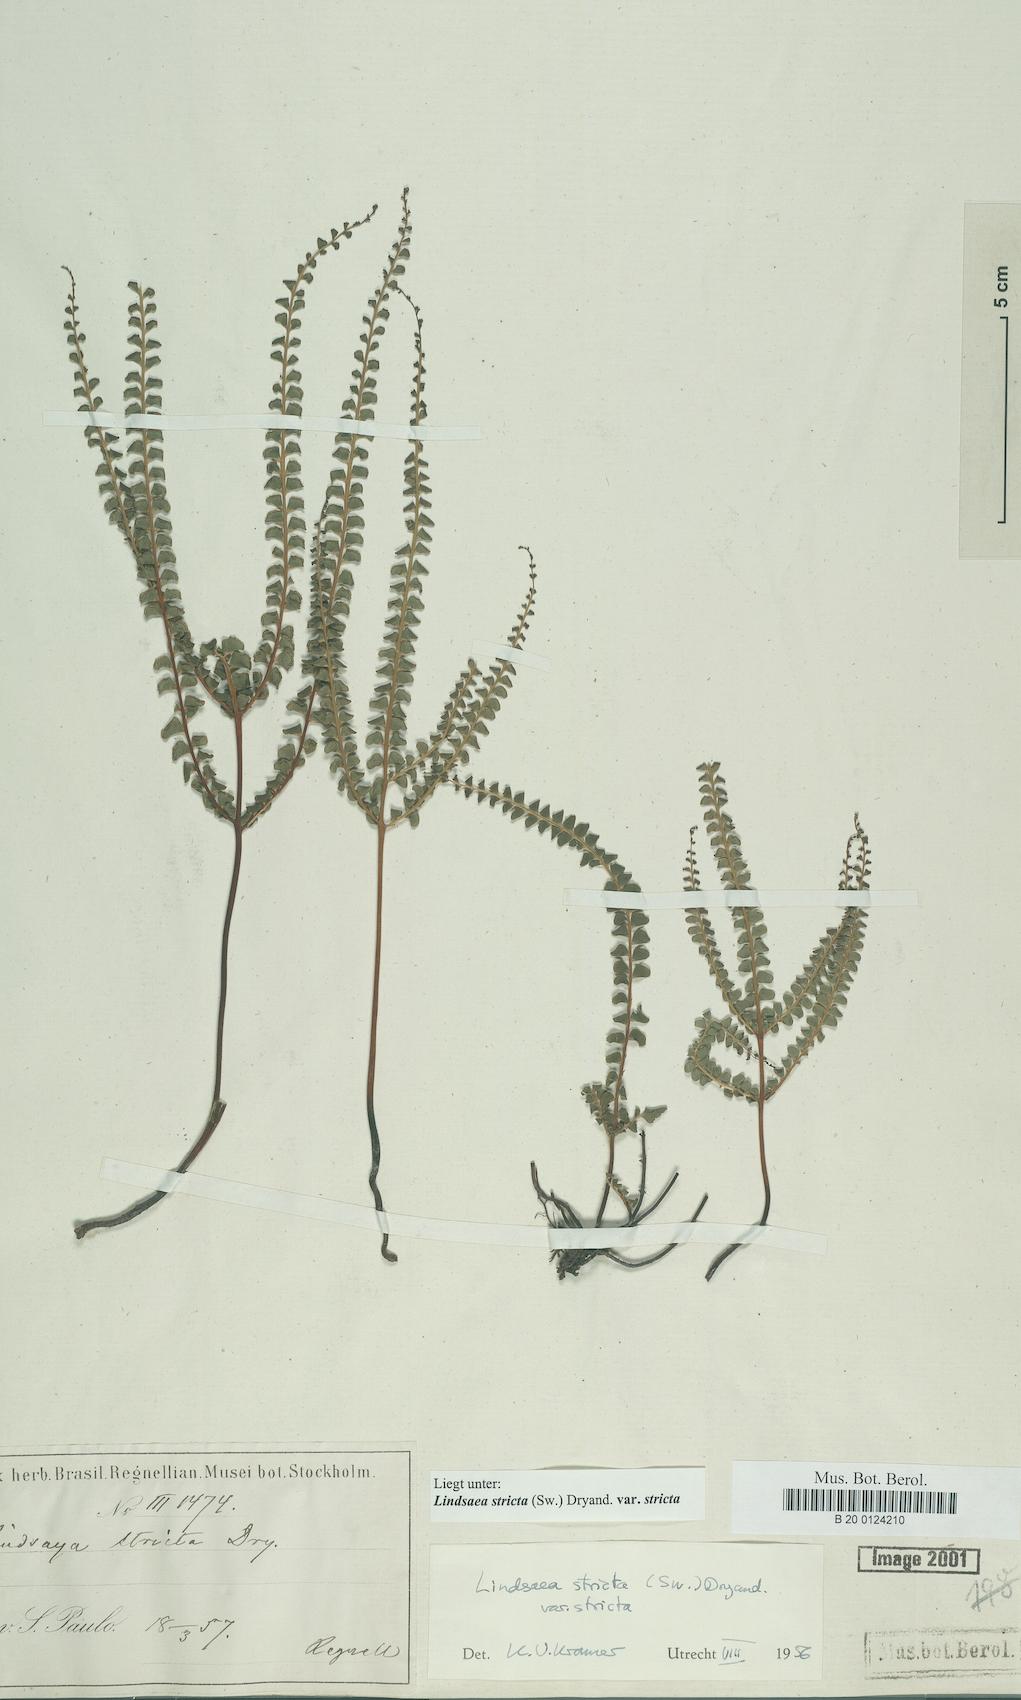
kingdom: Plantae
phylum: Tracheophyta
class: Polypodiopsida
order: Polypodiales
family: Lindsaeaceae
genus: Lindsaea
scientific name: Lindsaea stricta
